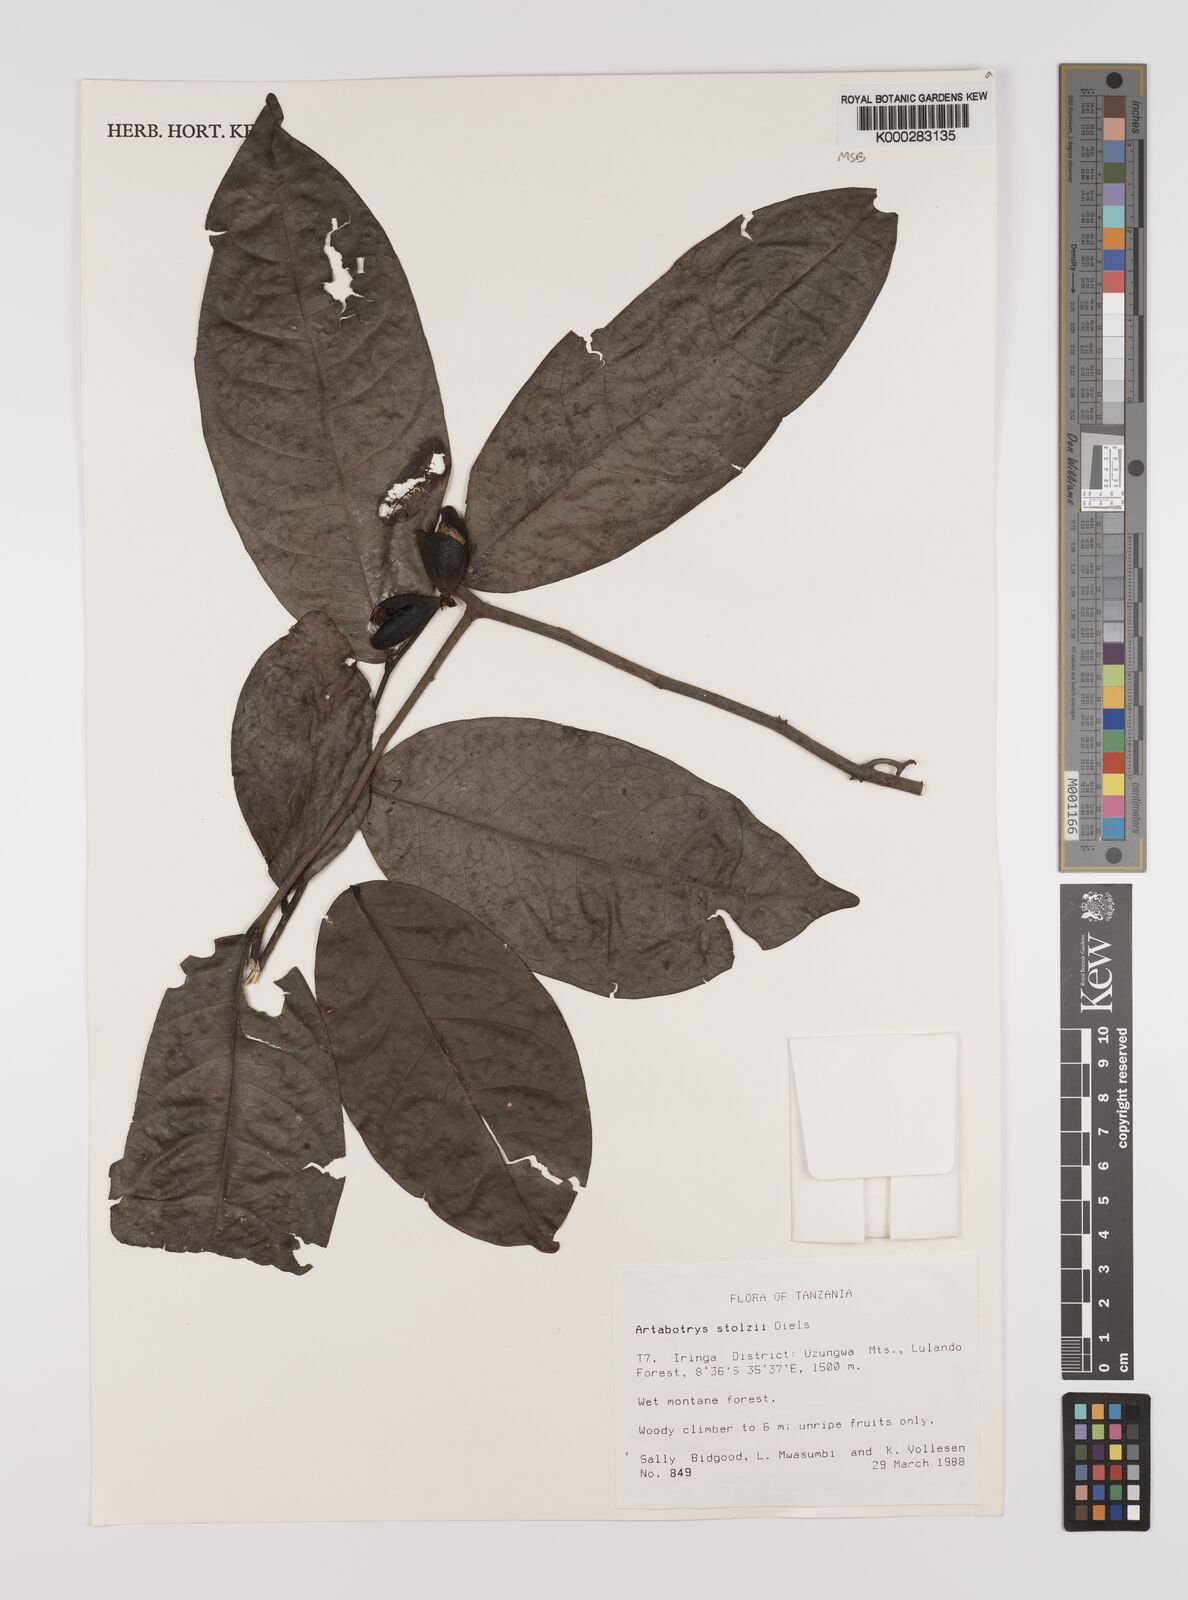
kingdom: Plantae
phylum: Tracheophyta
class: Magnoliopsida
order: Magnoliales
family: Annonaceae
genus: Artabotrys
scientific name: Artabotrys stolzii
